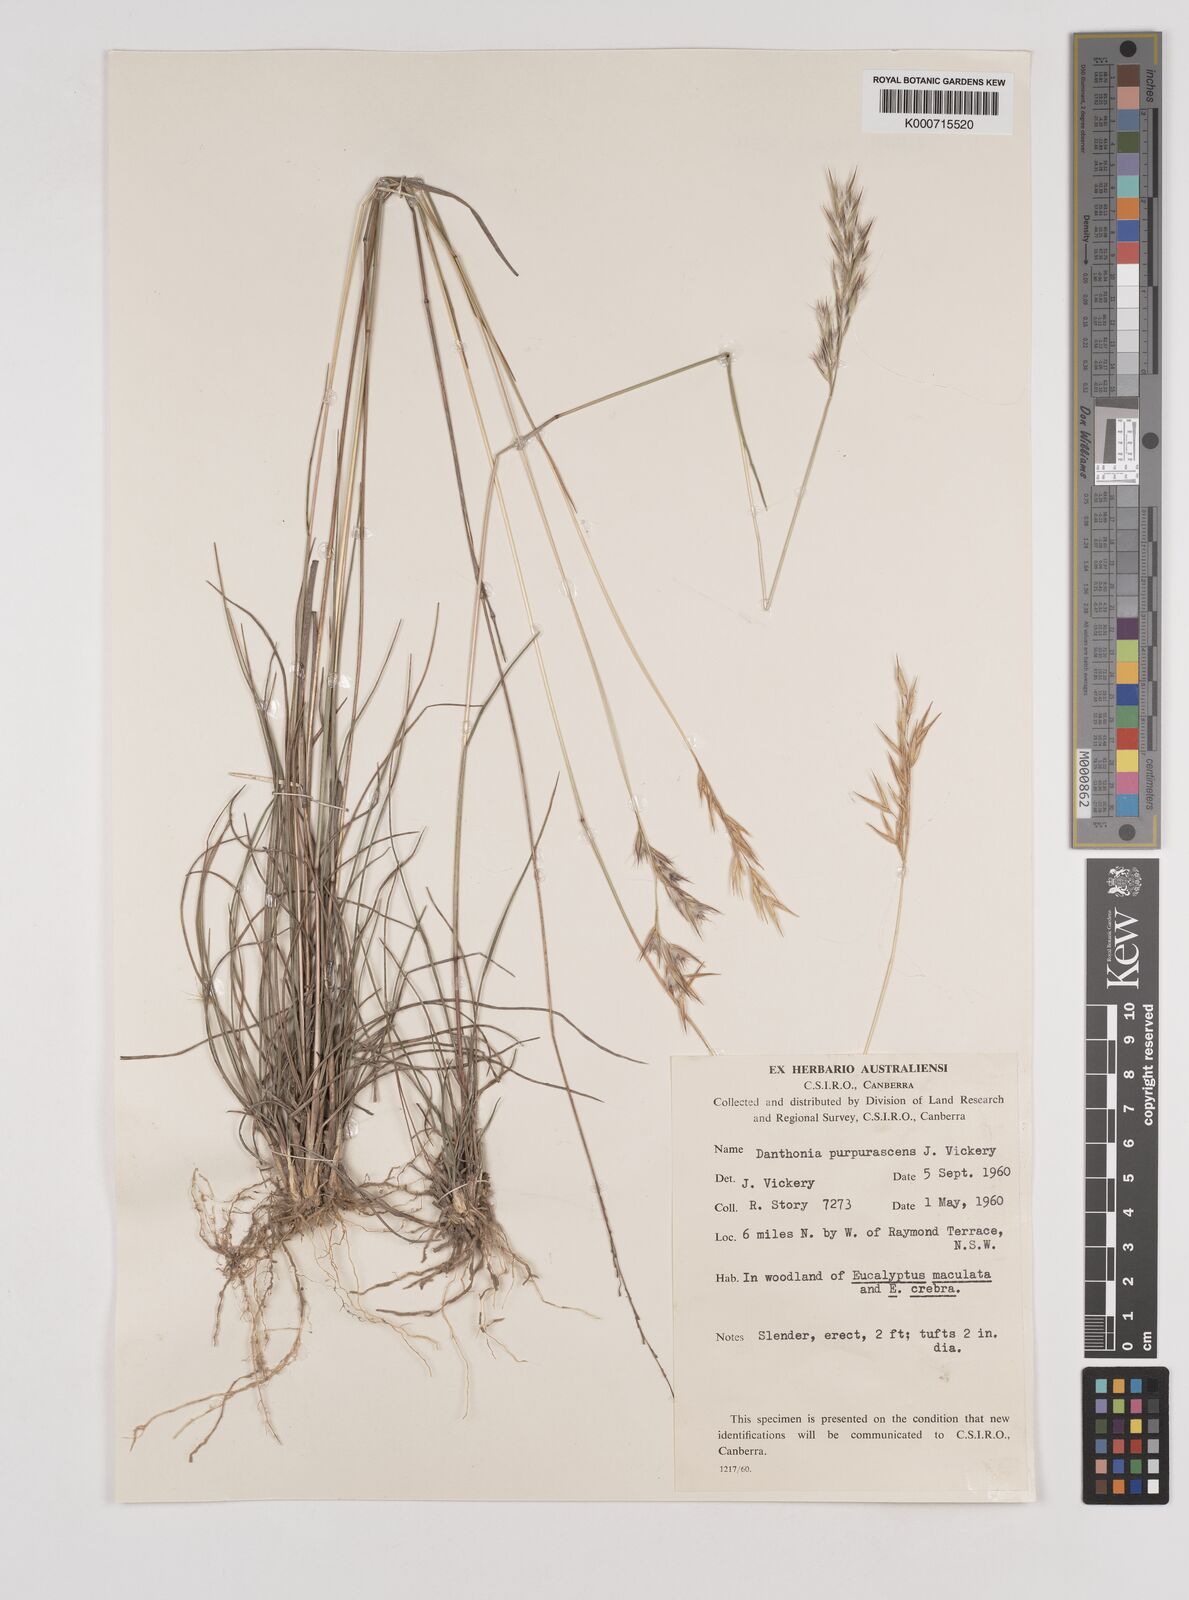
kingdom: Plantae
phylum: Tracheophyta
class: Liliopsida
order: Poales
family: Poaceae
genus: Rytidosperma
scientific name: Rytidosperma tenuius
